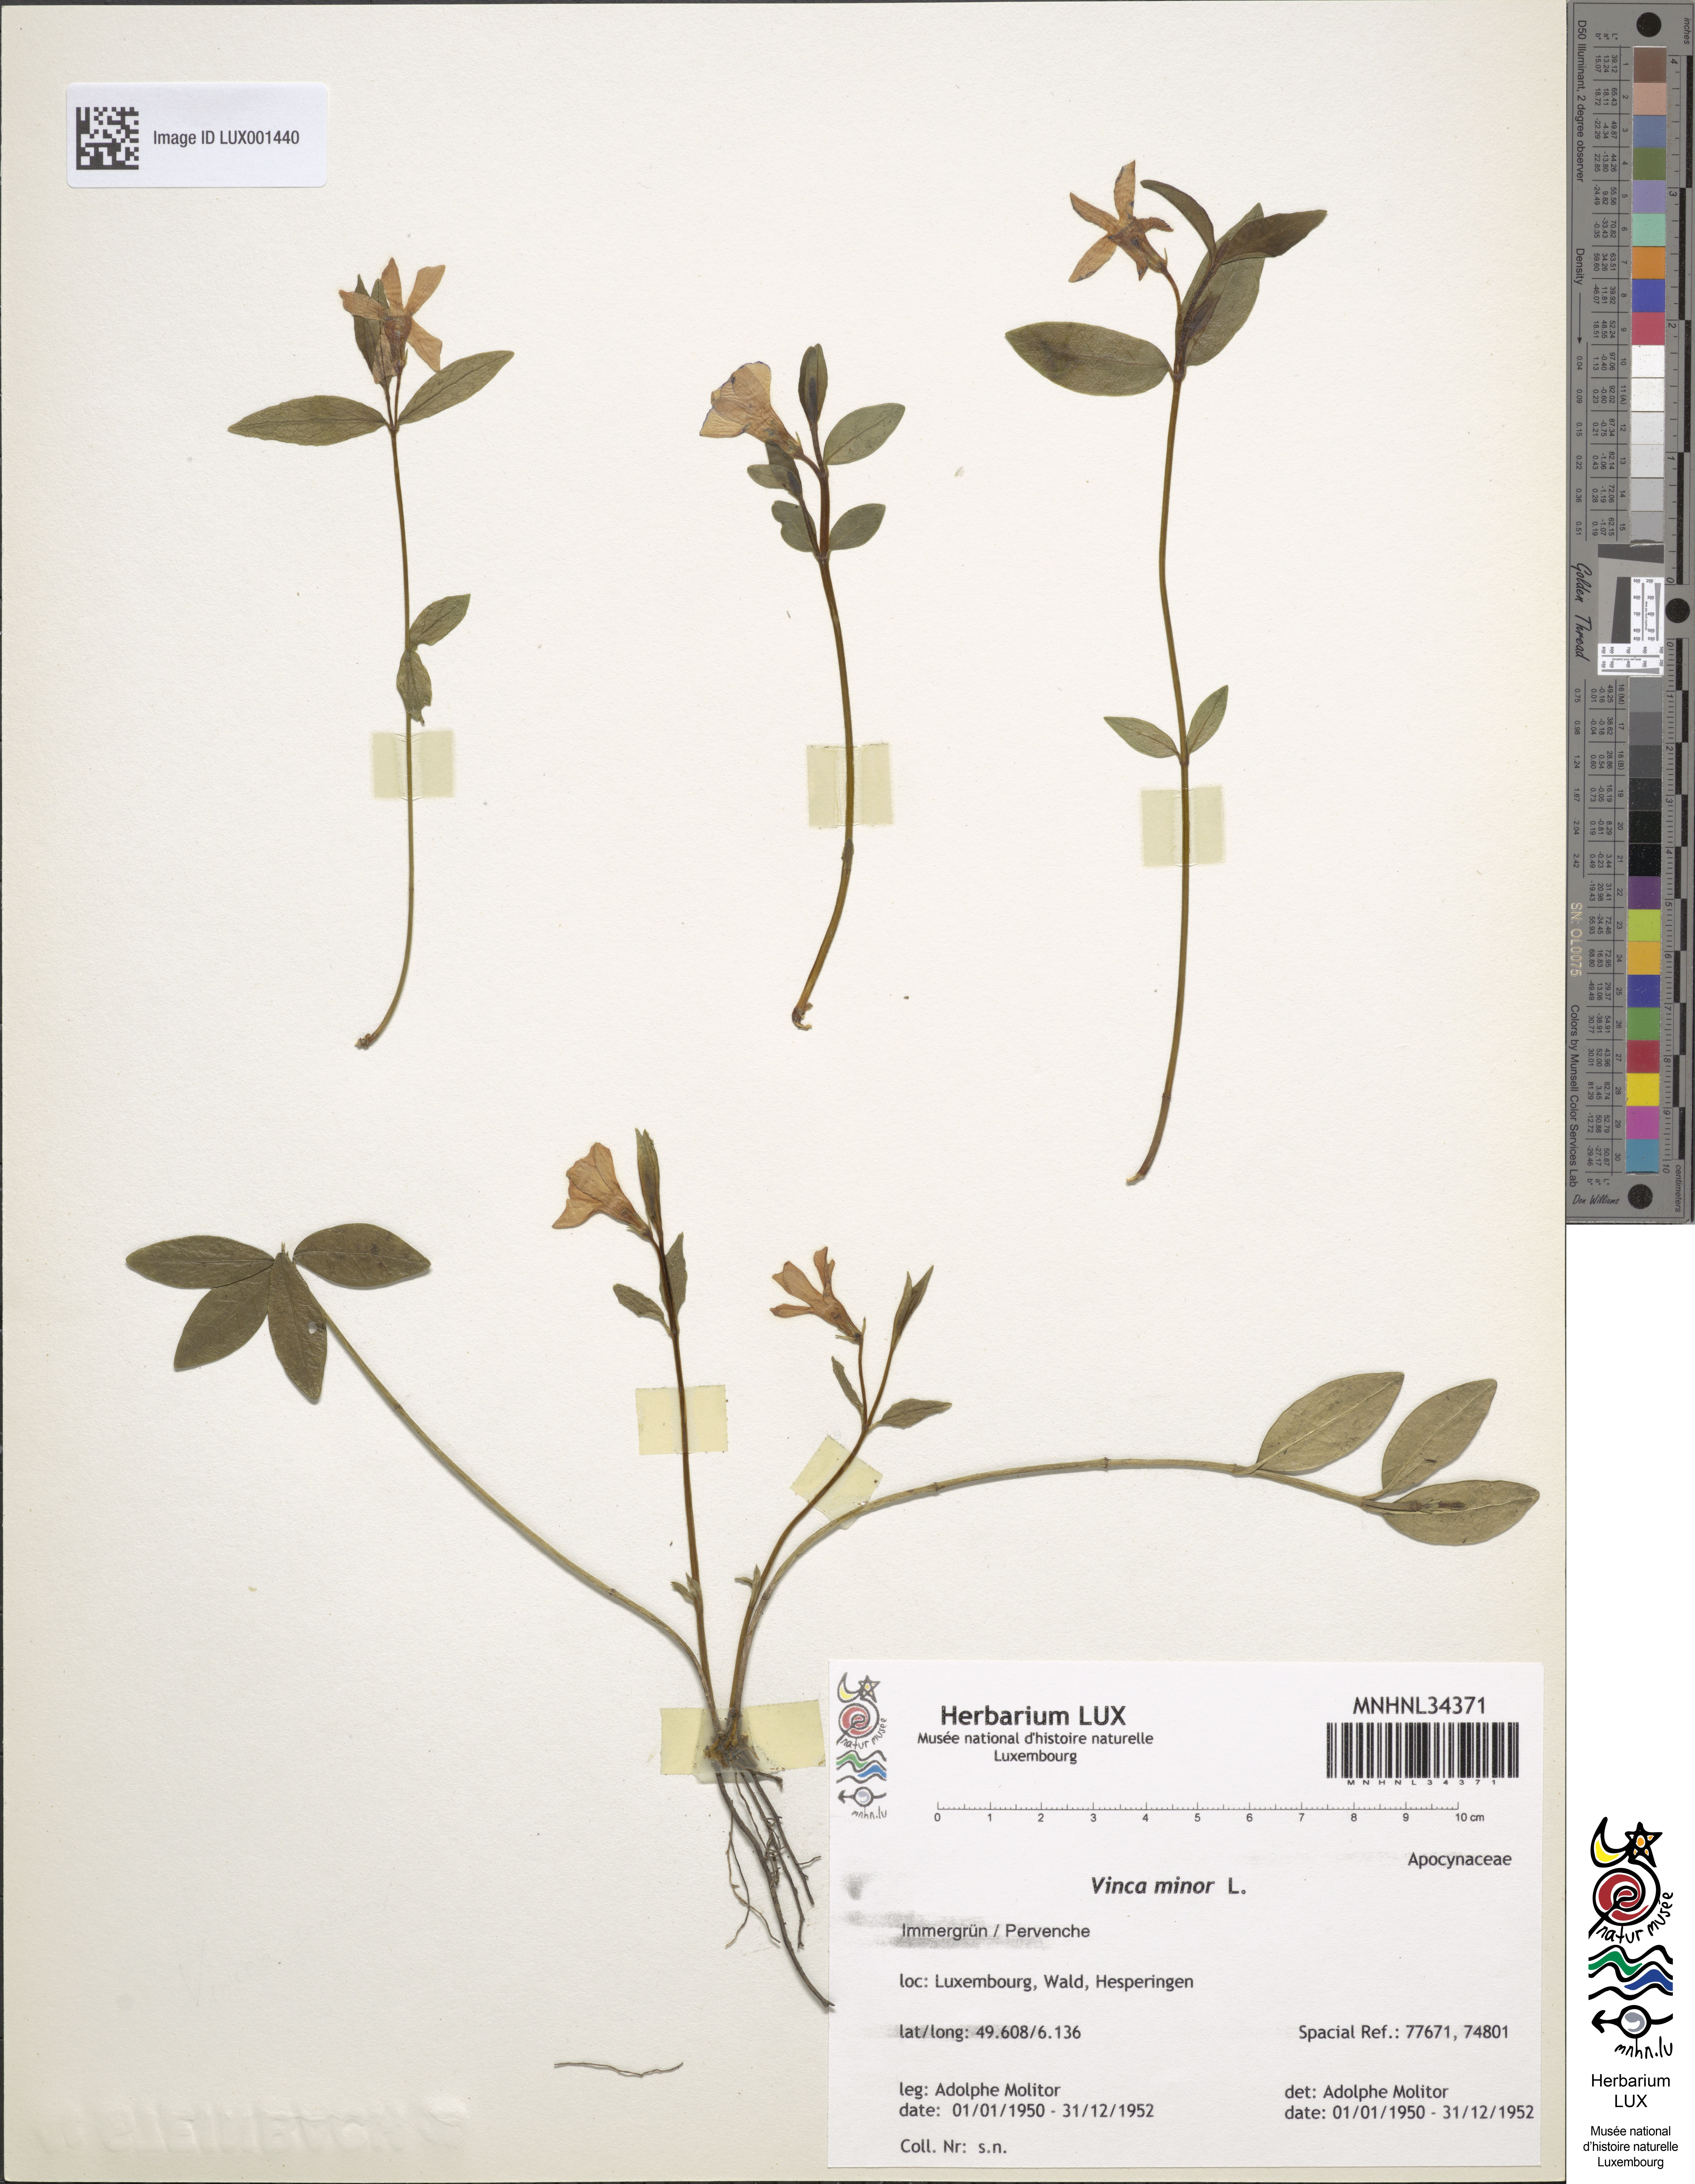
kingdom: Plantae
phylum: Tracheophyta
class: Magnoliopsida
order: Gentianales
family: Apocynaceae
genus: Vinca
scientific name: Vinca minor
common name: Lesser periwinkle
